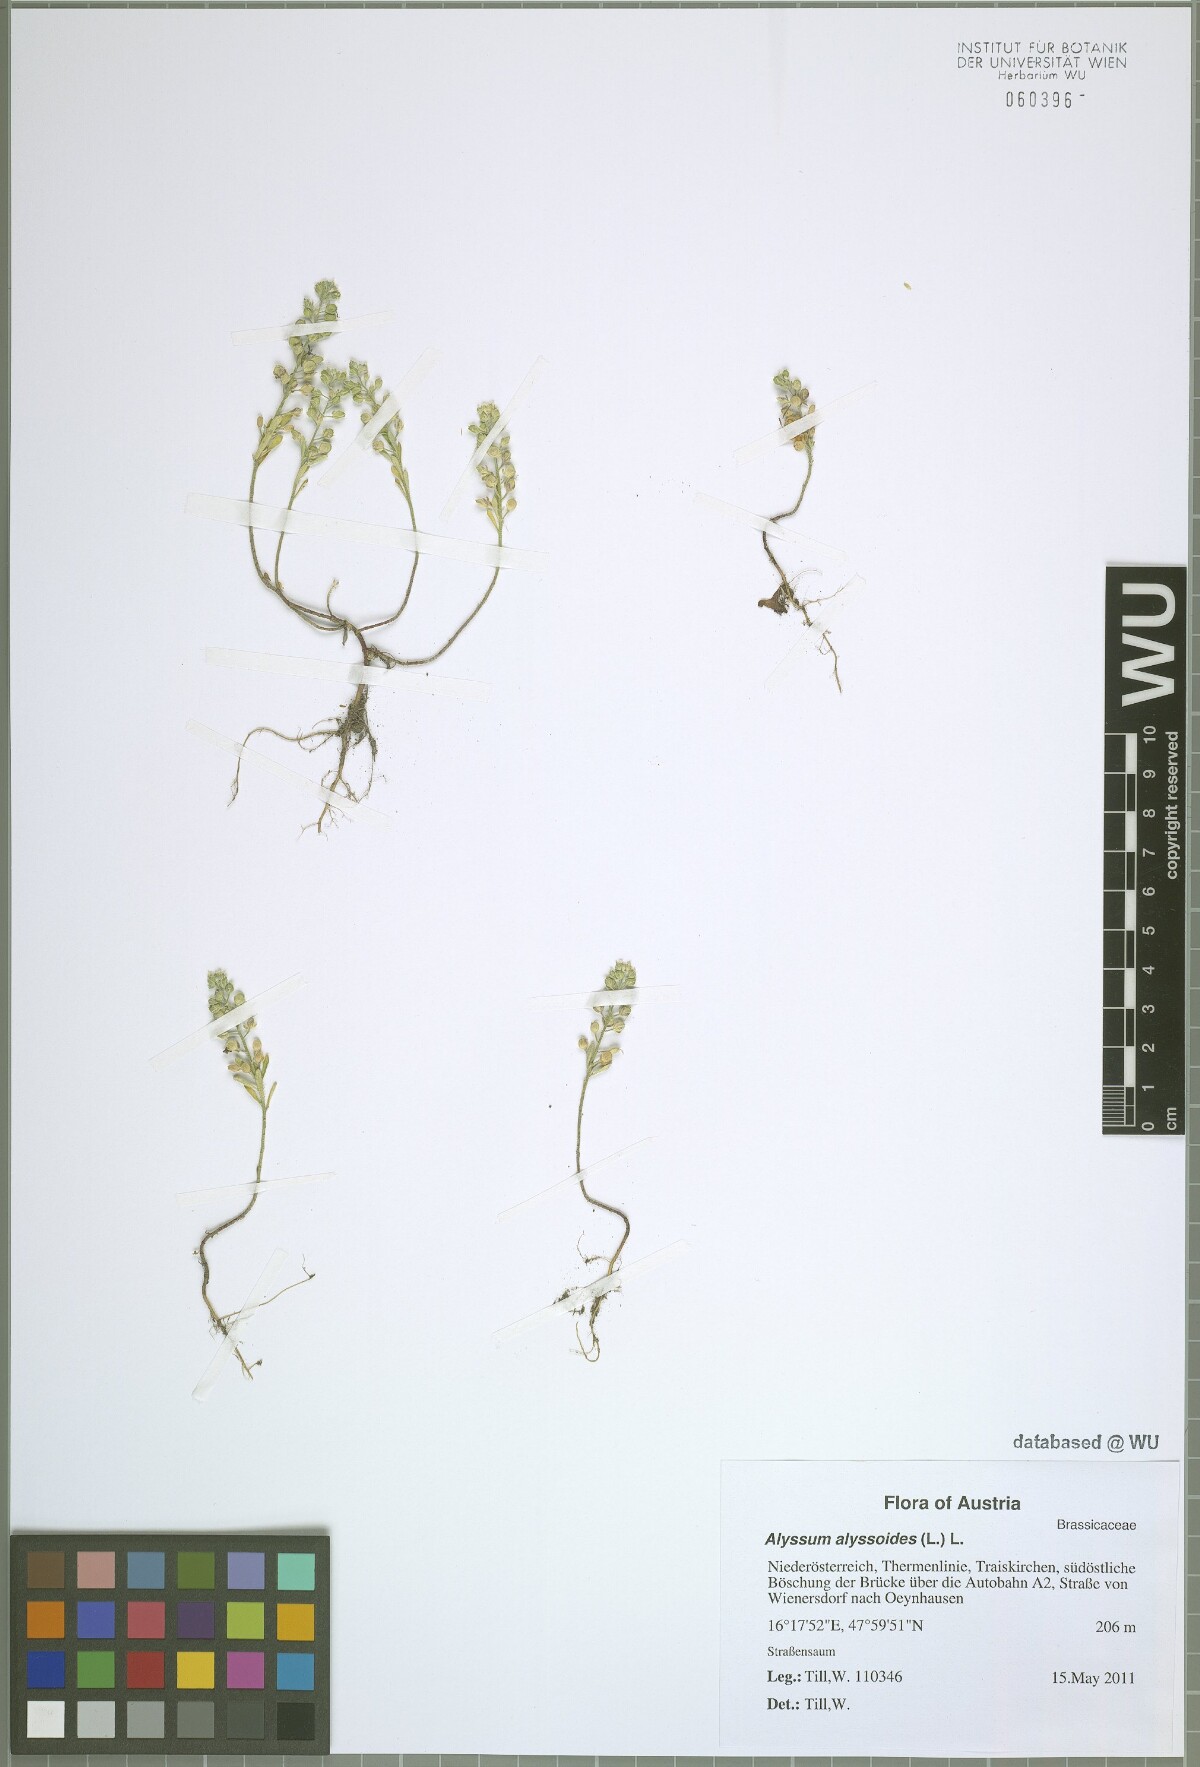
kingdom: Plantae
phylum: Tracheophyta
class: Magnoliopsida
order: Brassicales
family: Brassicaceae
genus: Alyssum
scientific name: Alyssum alyssoides
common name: Small alison
